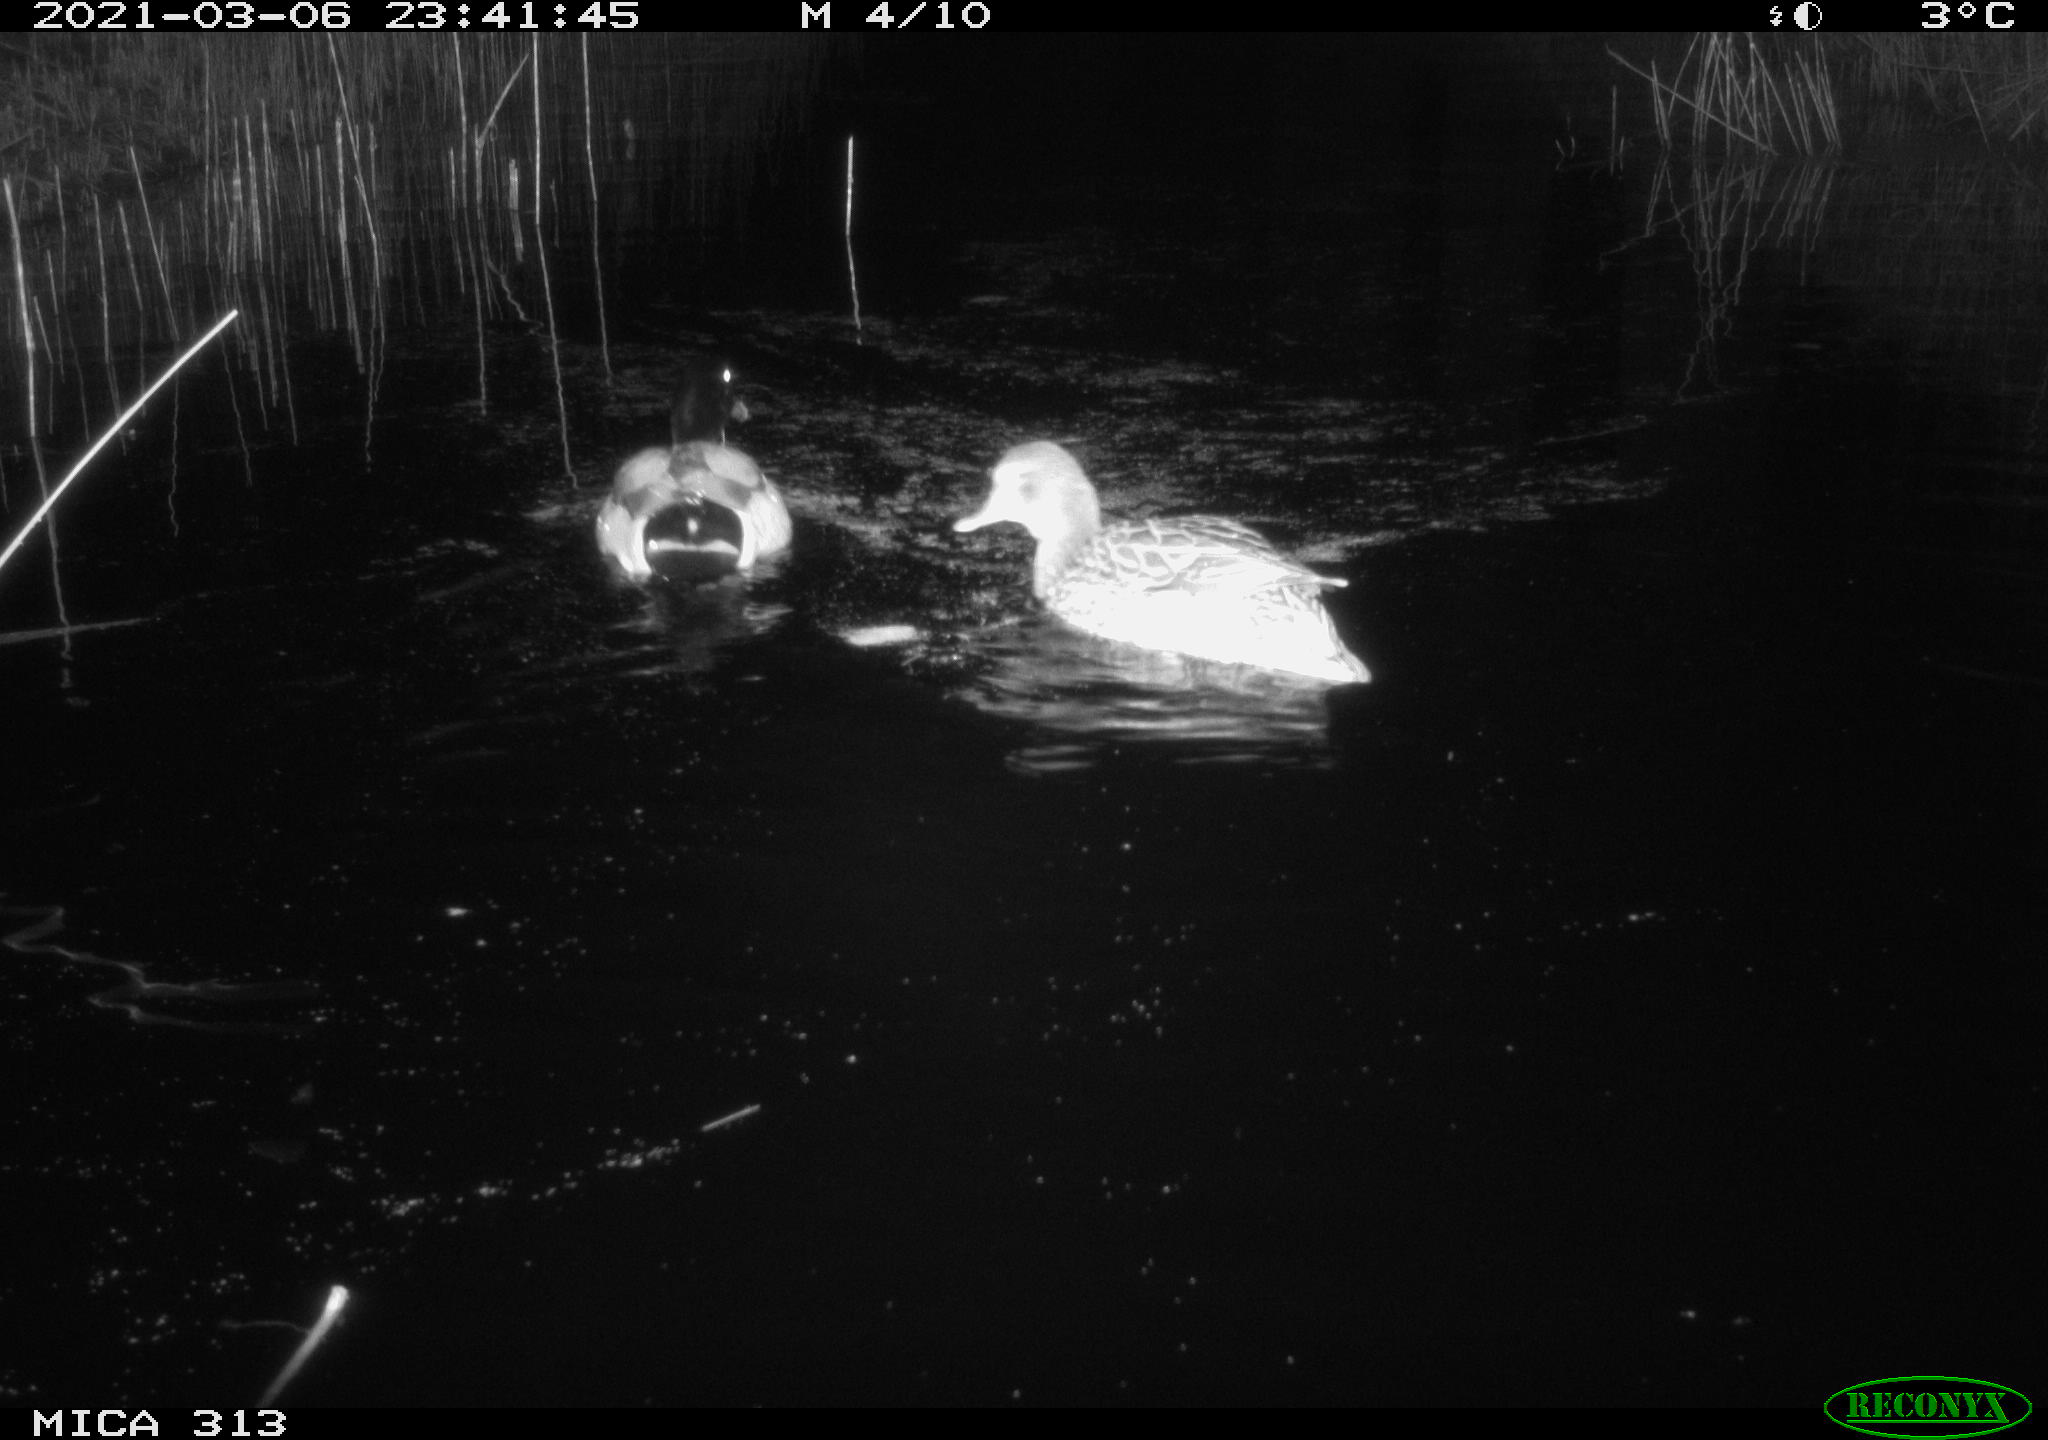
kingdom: Animalia
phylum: Chordata
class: Aves
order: Anseriformes
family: Anatidae
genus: Anas
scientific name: Anas platyrhynchos
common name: Mallard
